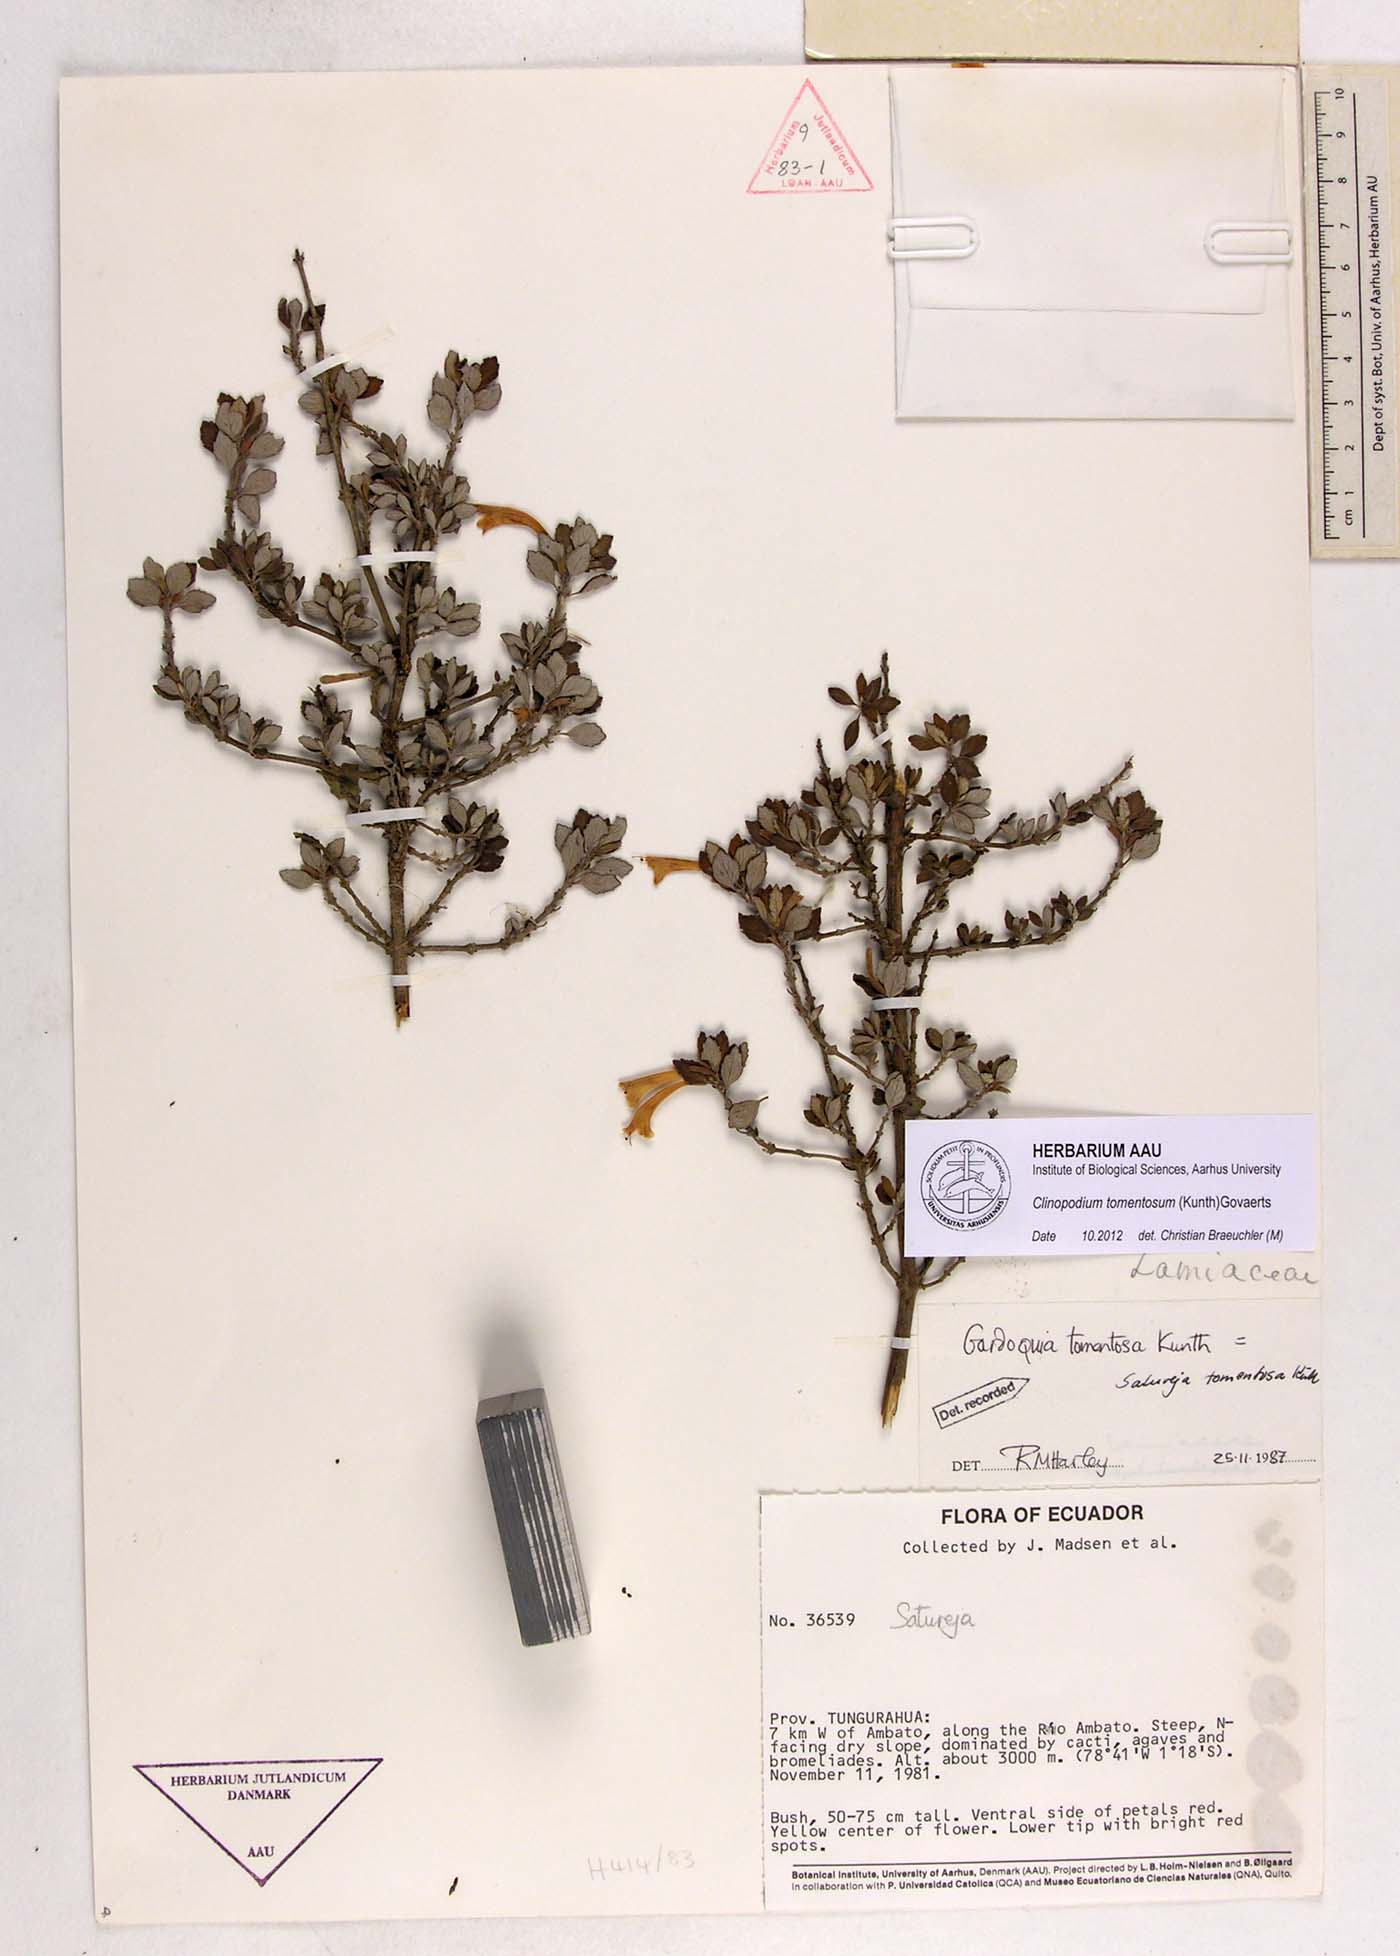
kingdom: Plantae
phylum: Tracheophyta
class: Magnoliopsida
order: Lamiales
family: Lamiaceae
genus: Clinopodium
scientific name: Clinopodium tomentosum
